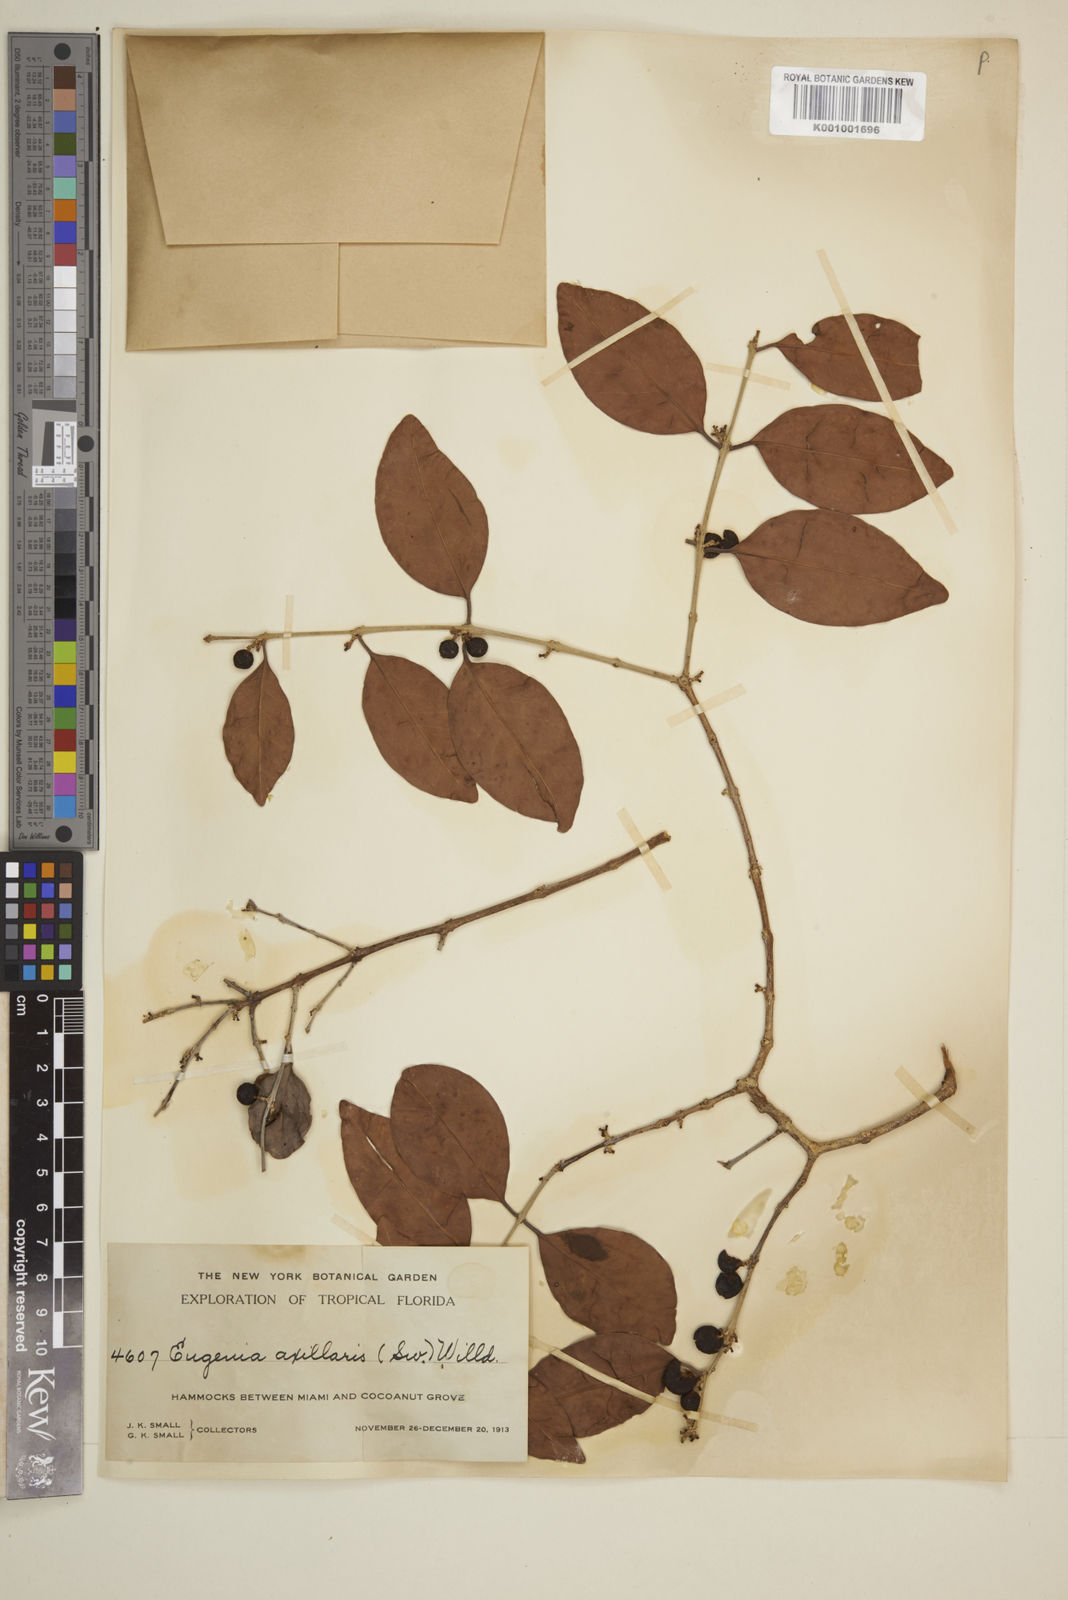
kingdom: Plantae
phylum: Tracheophyta
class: Magnoliopsida
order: Myrtales
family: Myrtaceae
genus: Eugenia
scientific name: Eugenia axillaris
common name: Choaky berry
